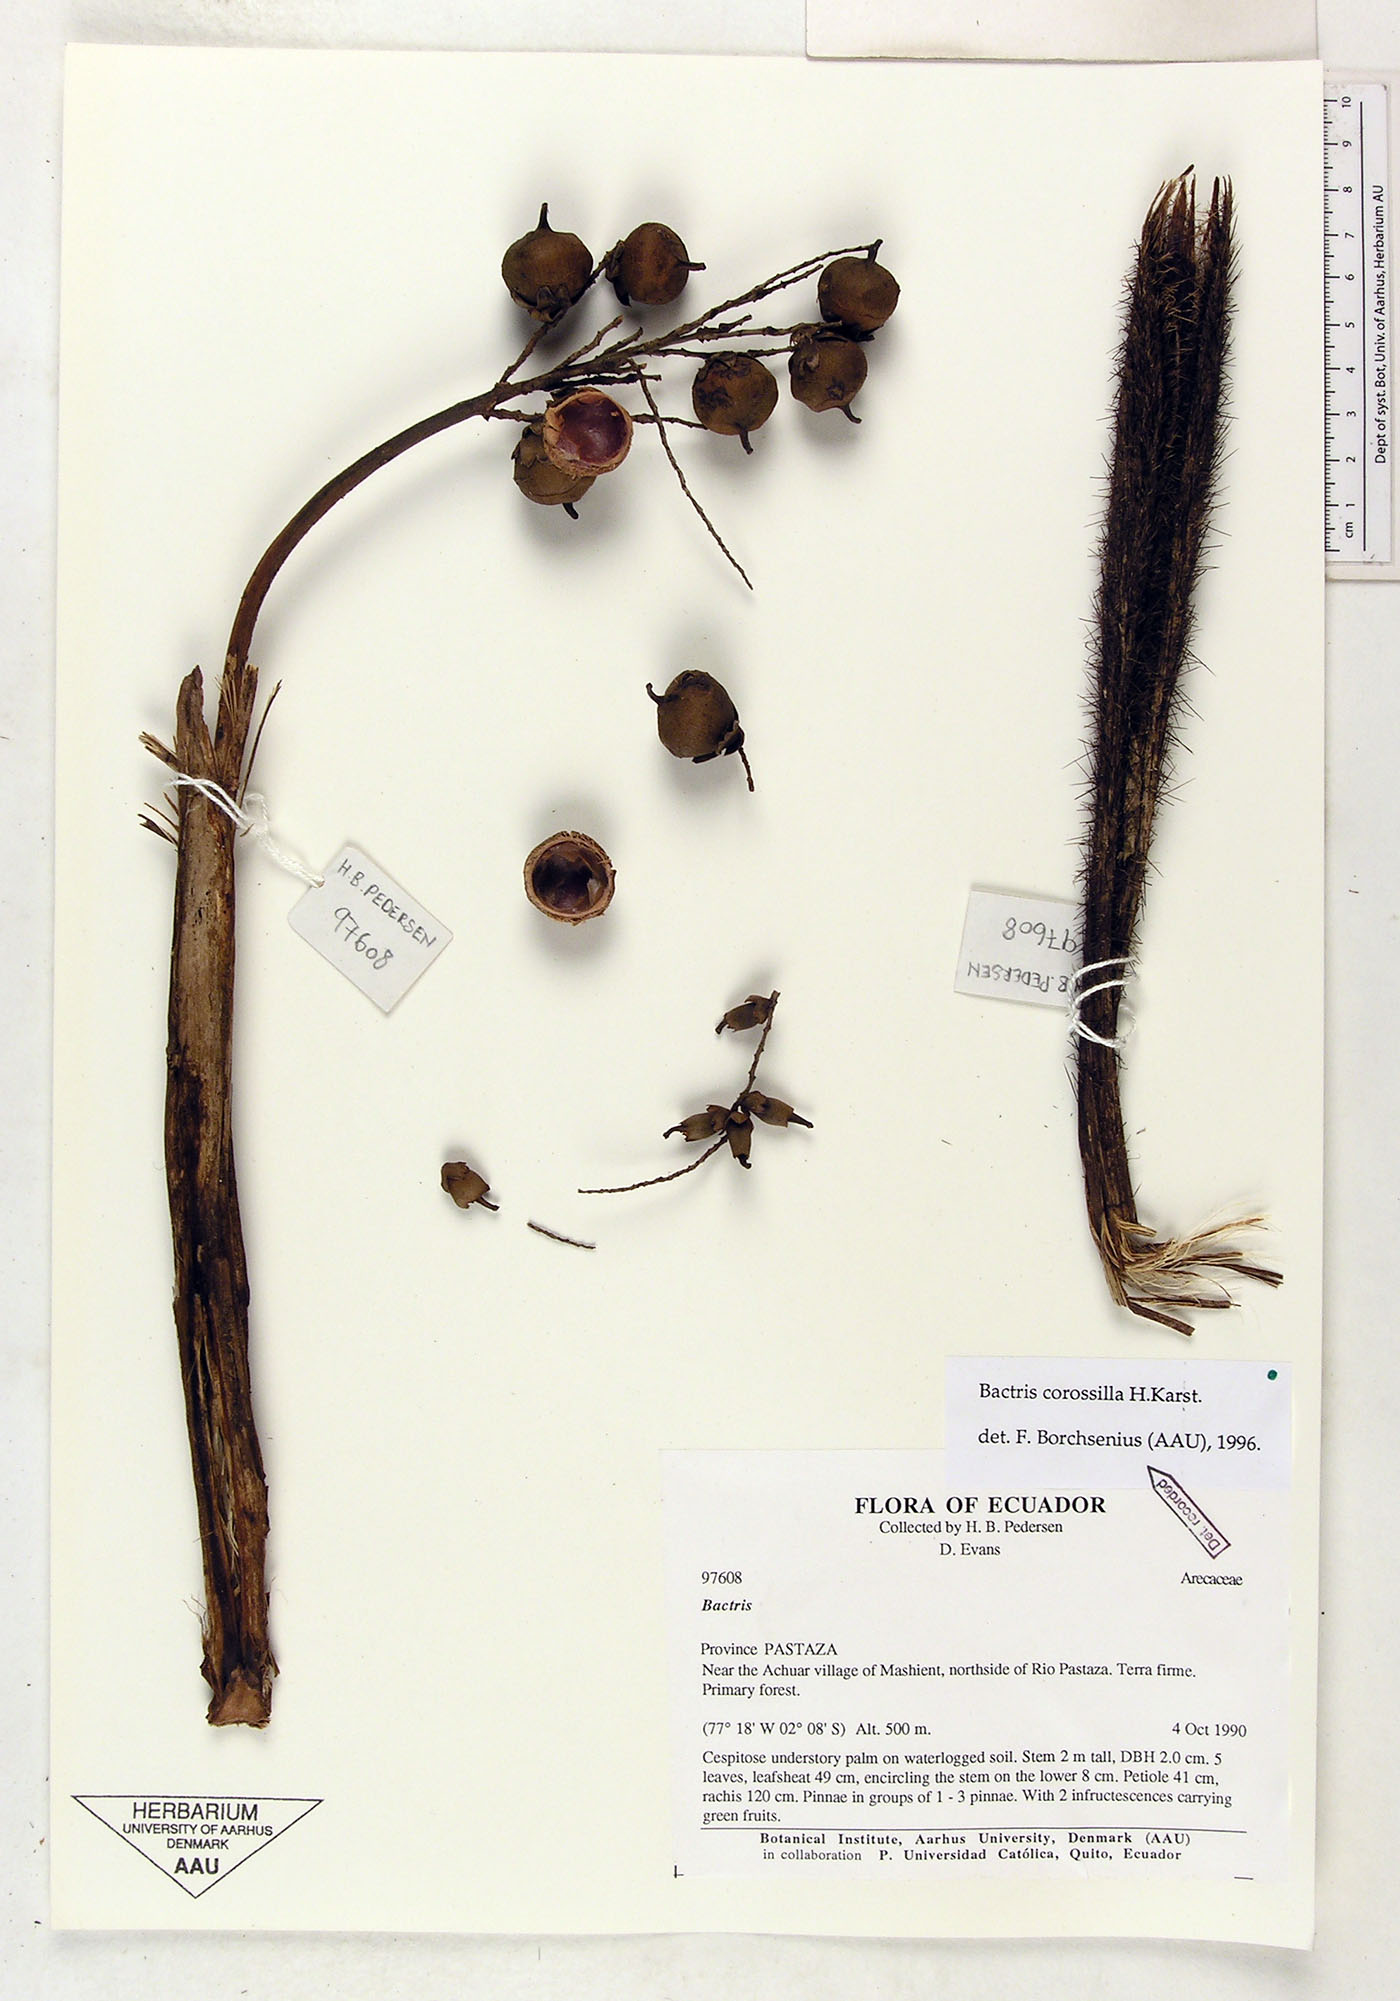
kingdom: Plantae
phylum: Tracheophyta
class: Liliopsida
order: Arecales
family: Arecaceae
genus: Bactris
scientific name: Bactris corossilla
